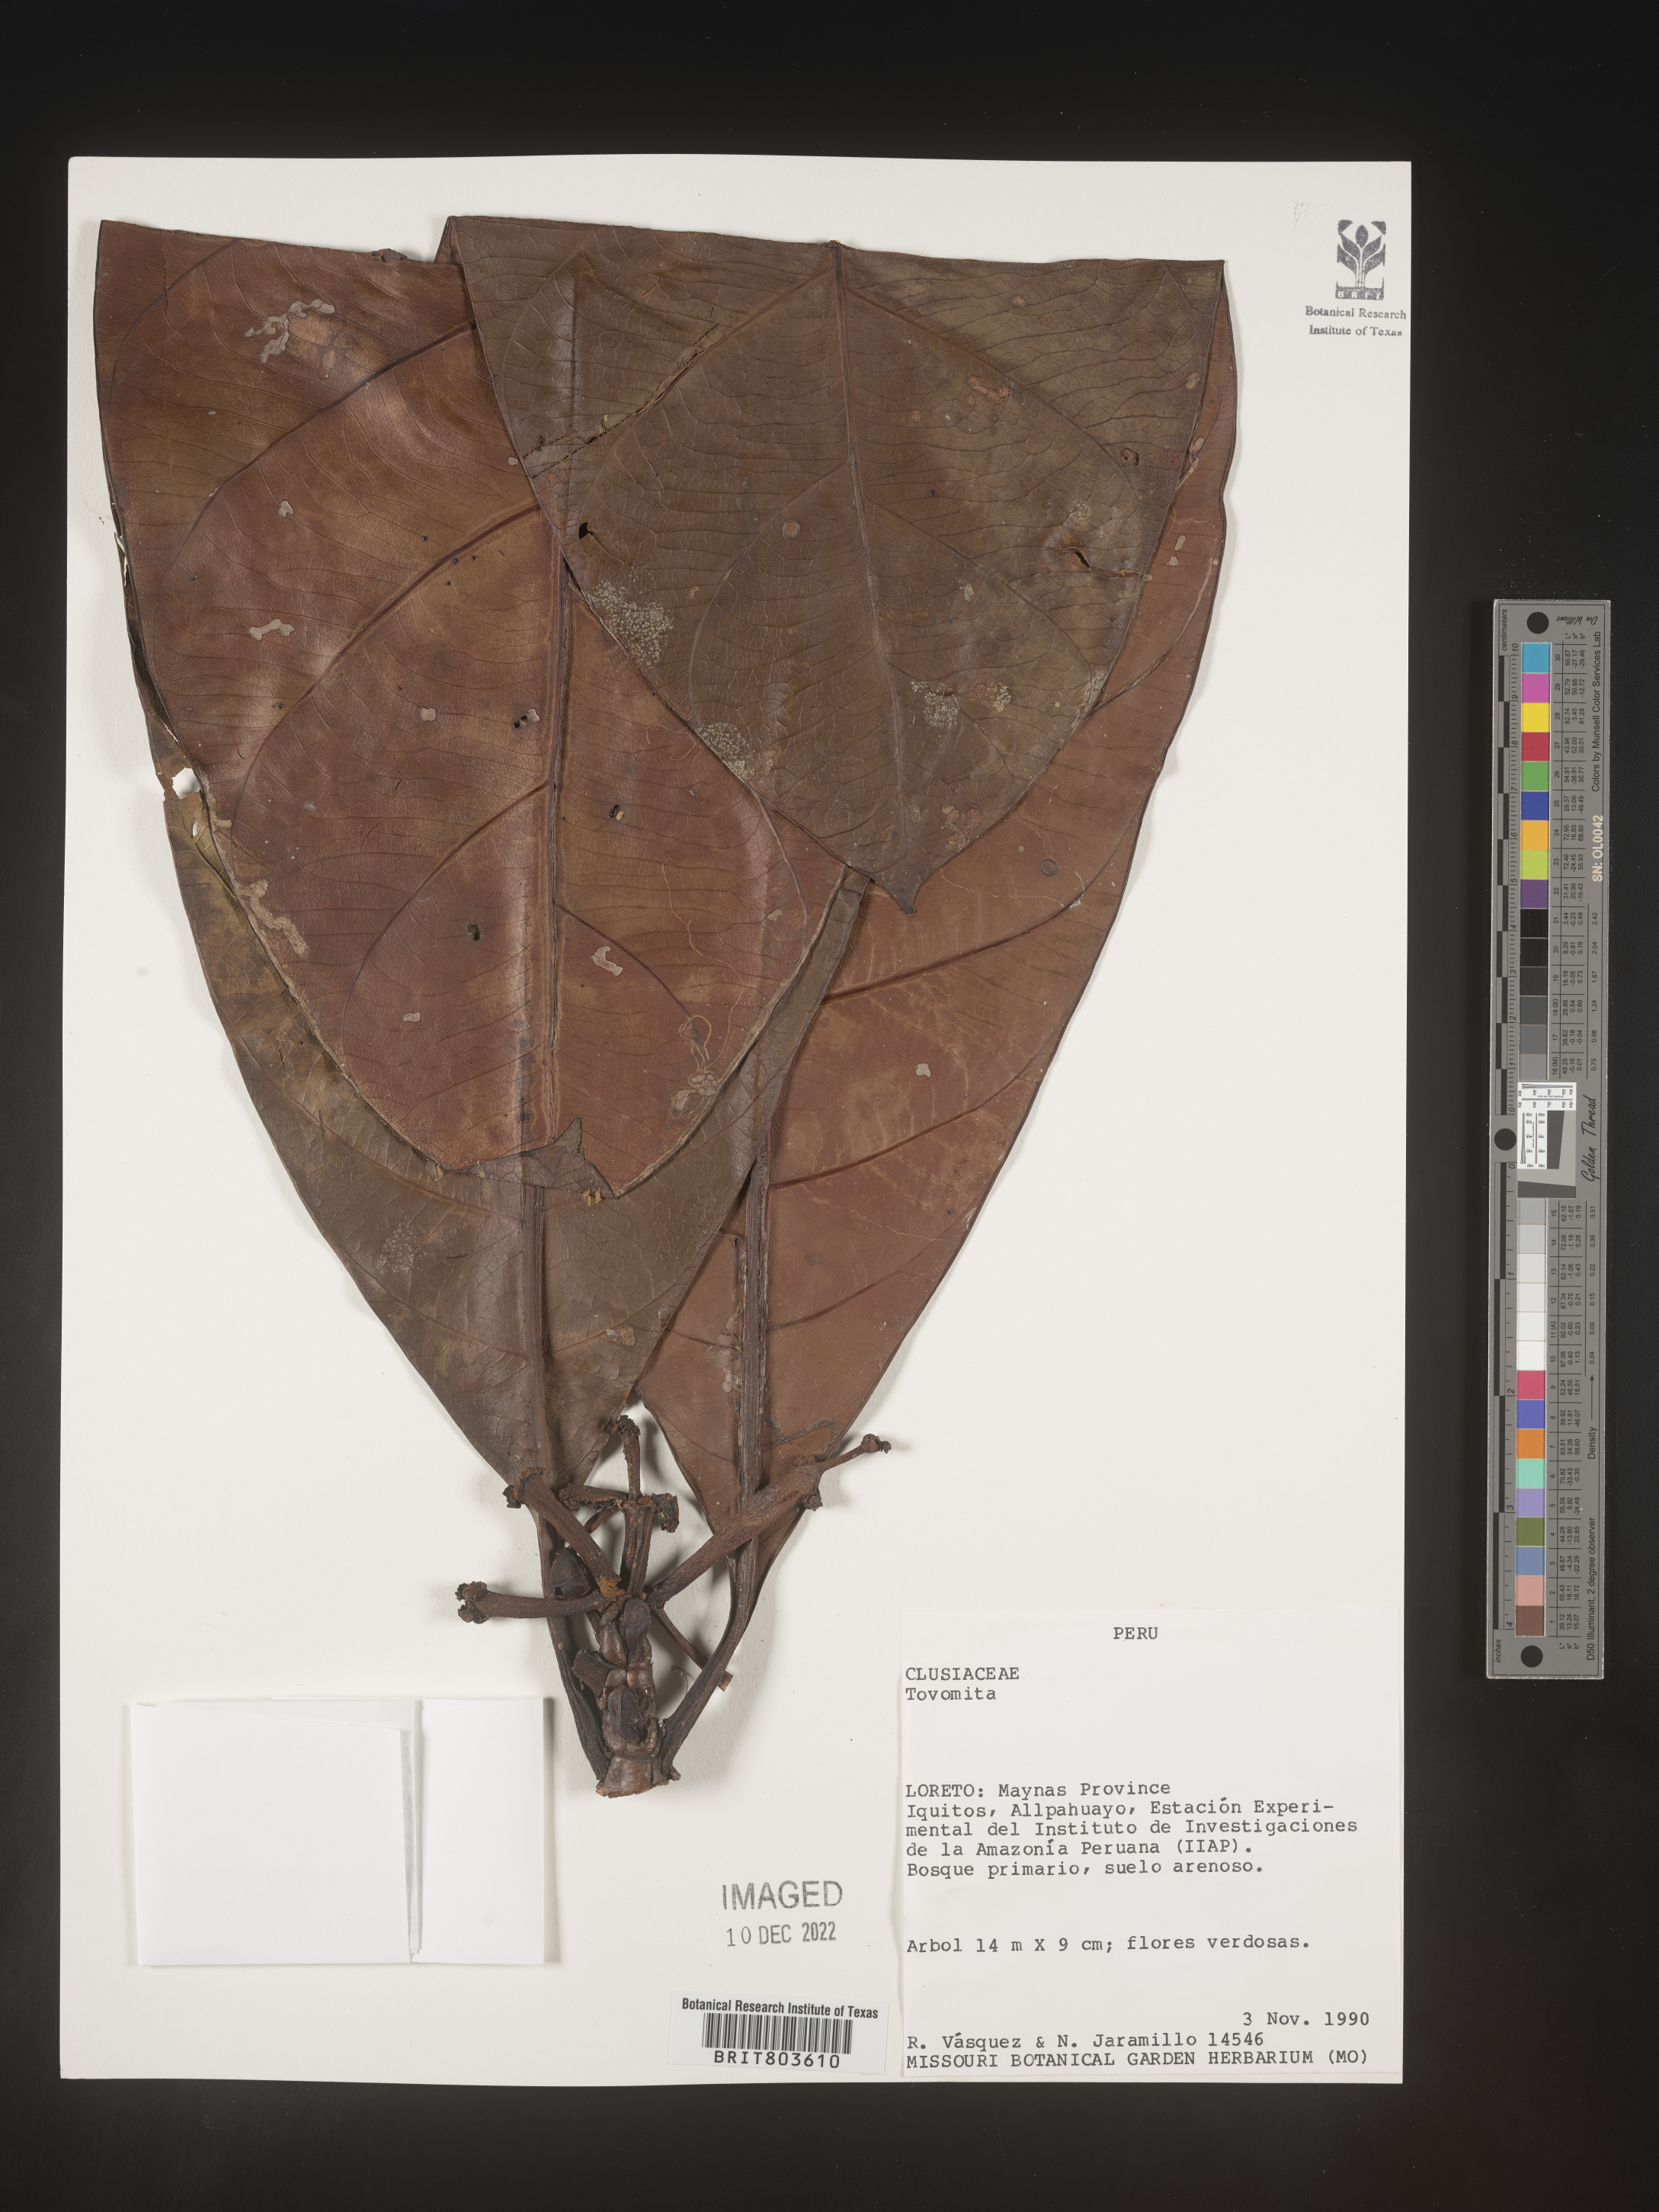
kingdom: Plantae
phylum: Tracheophyta
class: Magnoliopsida
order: Malpighiales
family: Clusiaceae
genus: Tovomita
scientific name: Tovomita
